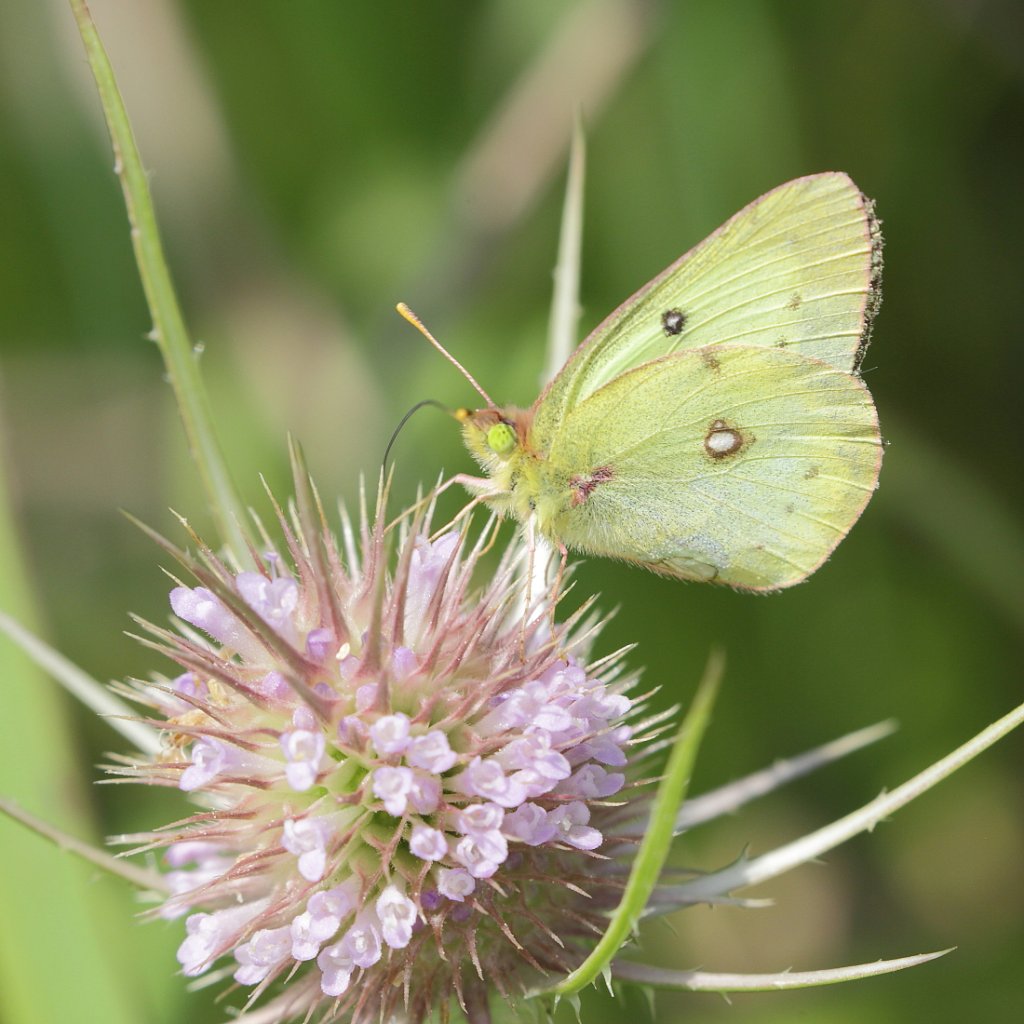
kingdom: Animalia
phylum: Arthropoda
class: Insecta
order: Lepidoptera
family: Pieridae
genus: Colias
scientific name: Colias philodice
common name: Clouded Sulphur
